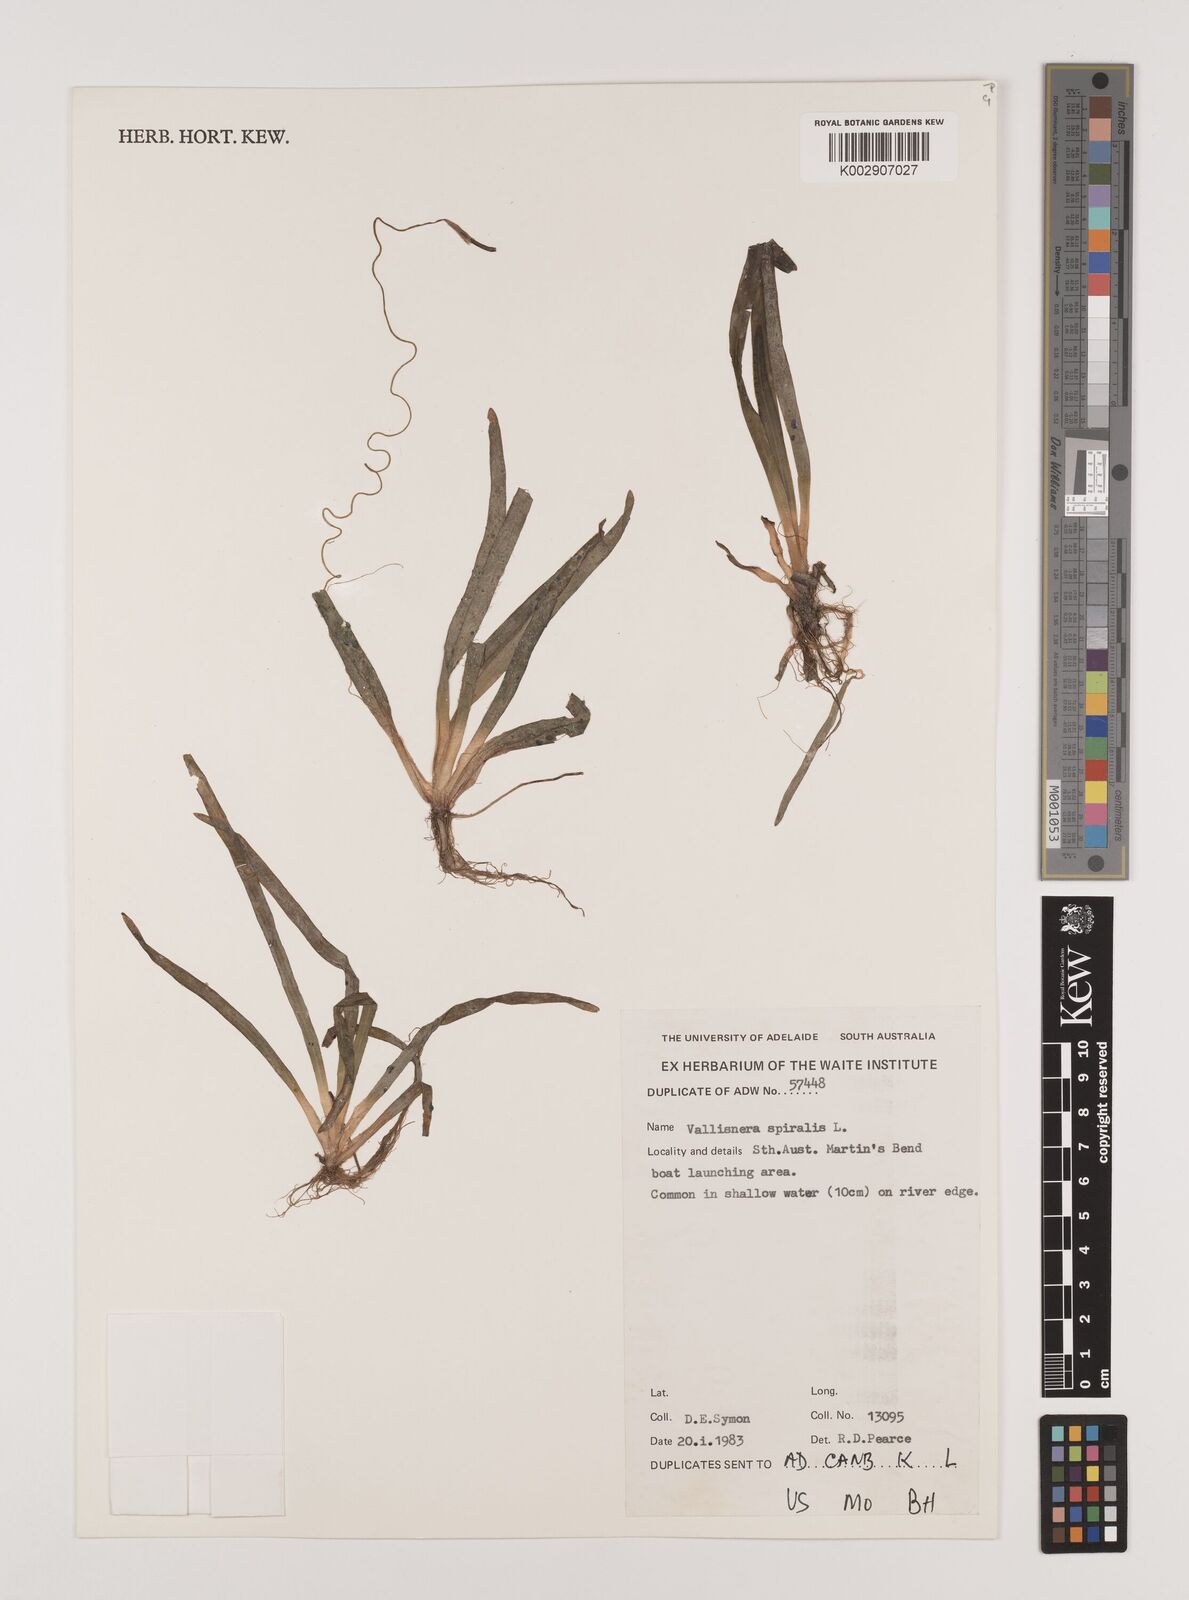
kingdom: Plantae
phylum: Tracheophyta
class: Liliopsida
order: Alismatales
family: Hydrocharitaceae
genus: Vallisneria
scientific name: Vallisneria spiralis
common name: Tapegrass
